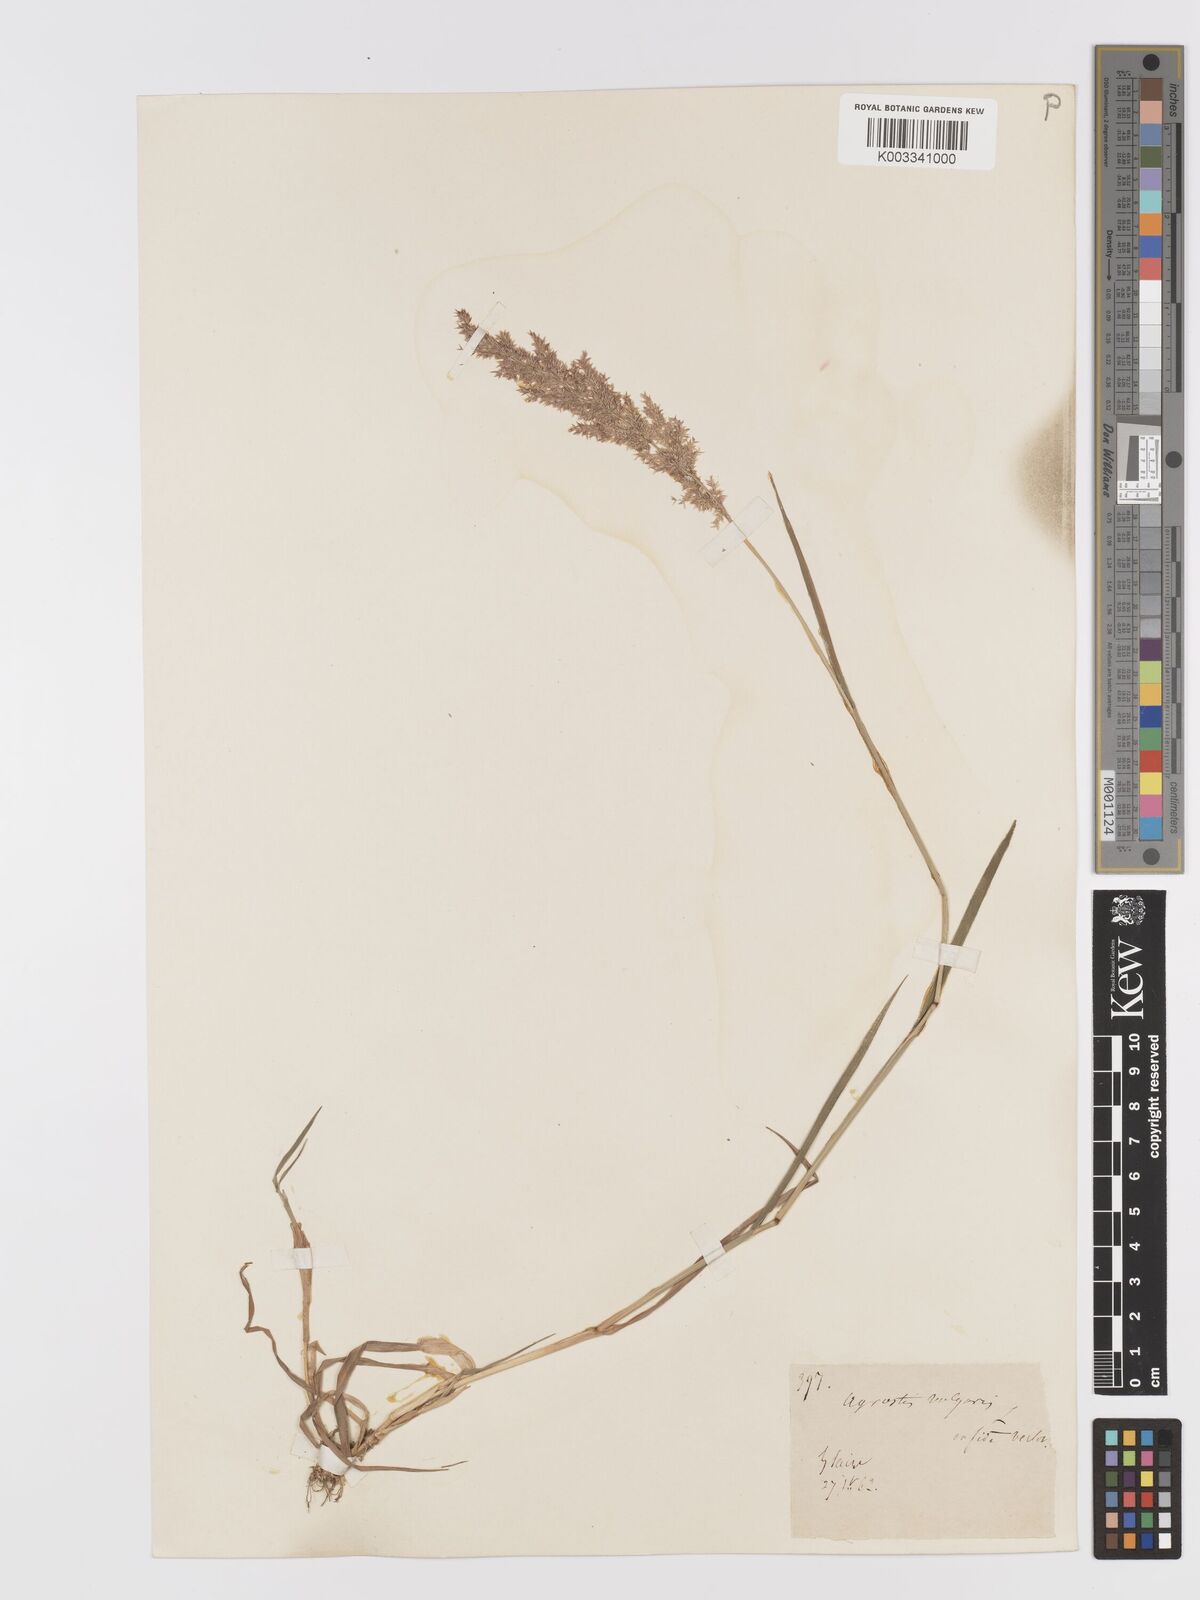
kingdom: Plantae
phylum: Tracheophyta
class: Liliopsida
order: Poales
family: Poaceae
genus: Agrostis
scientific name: Agrostis capillaris
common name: Colonial bentgrass
